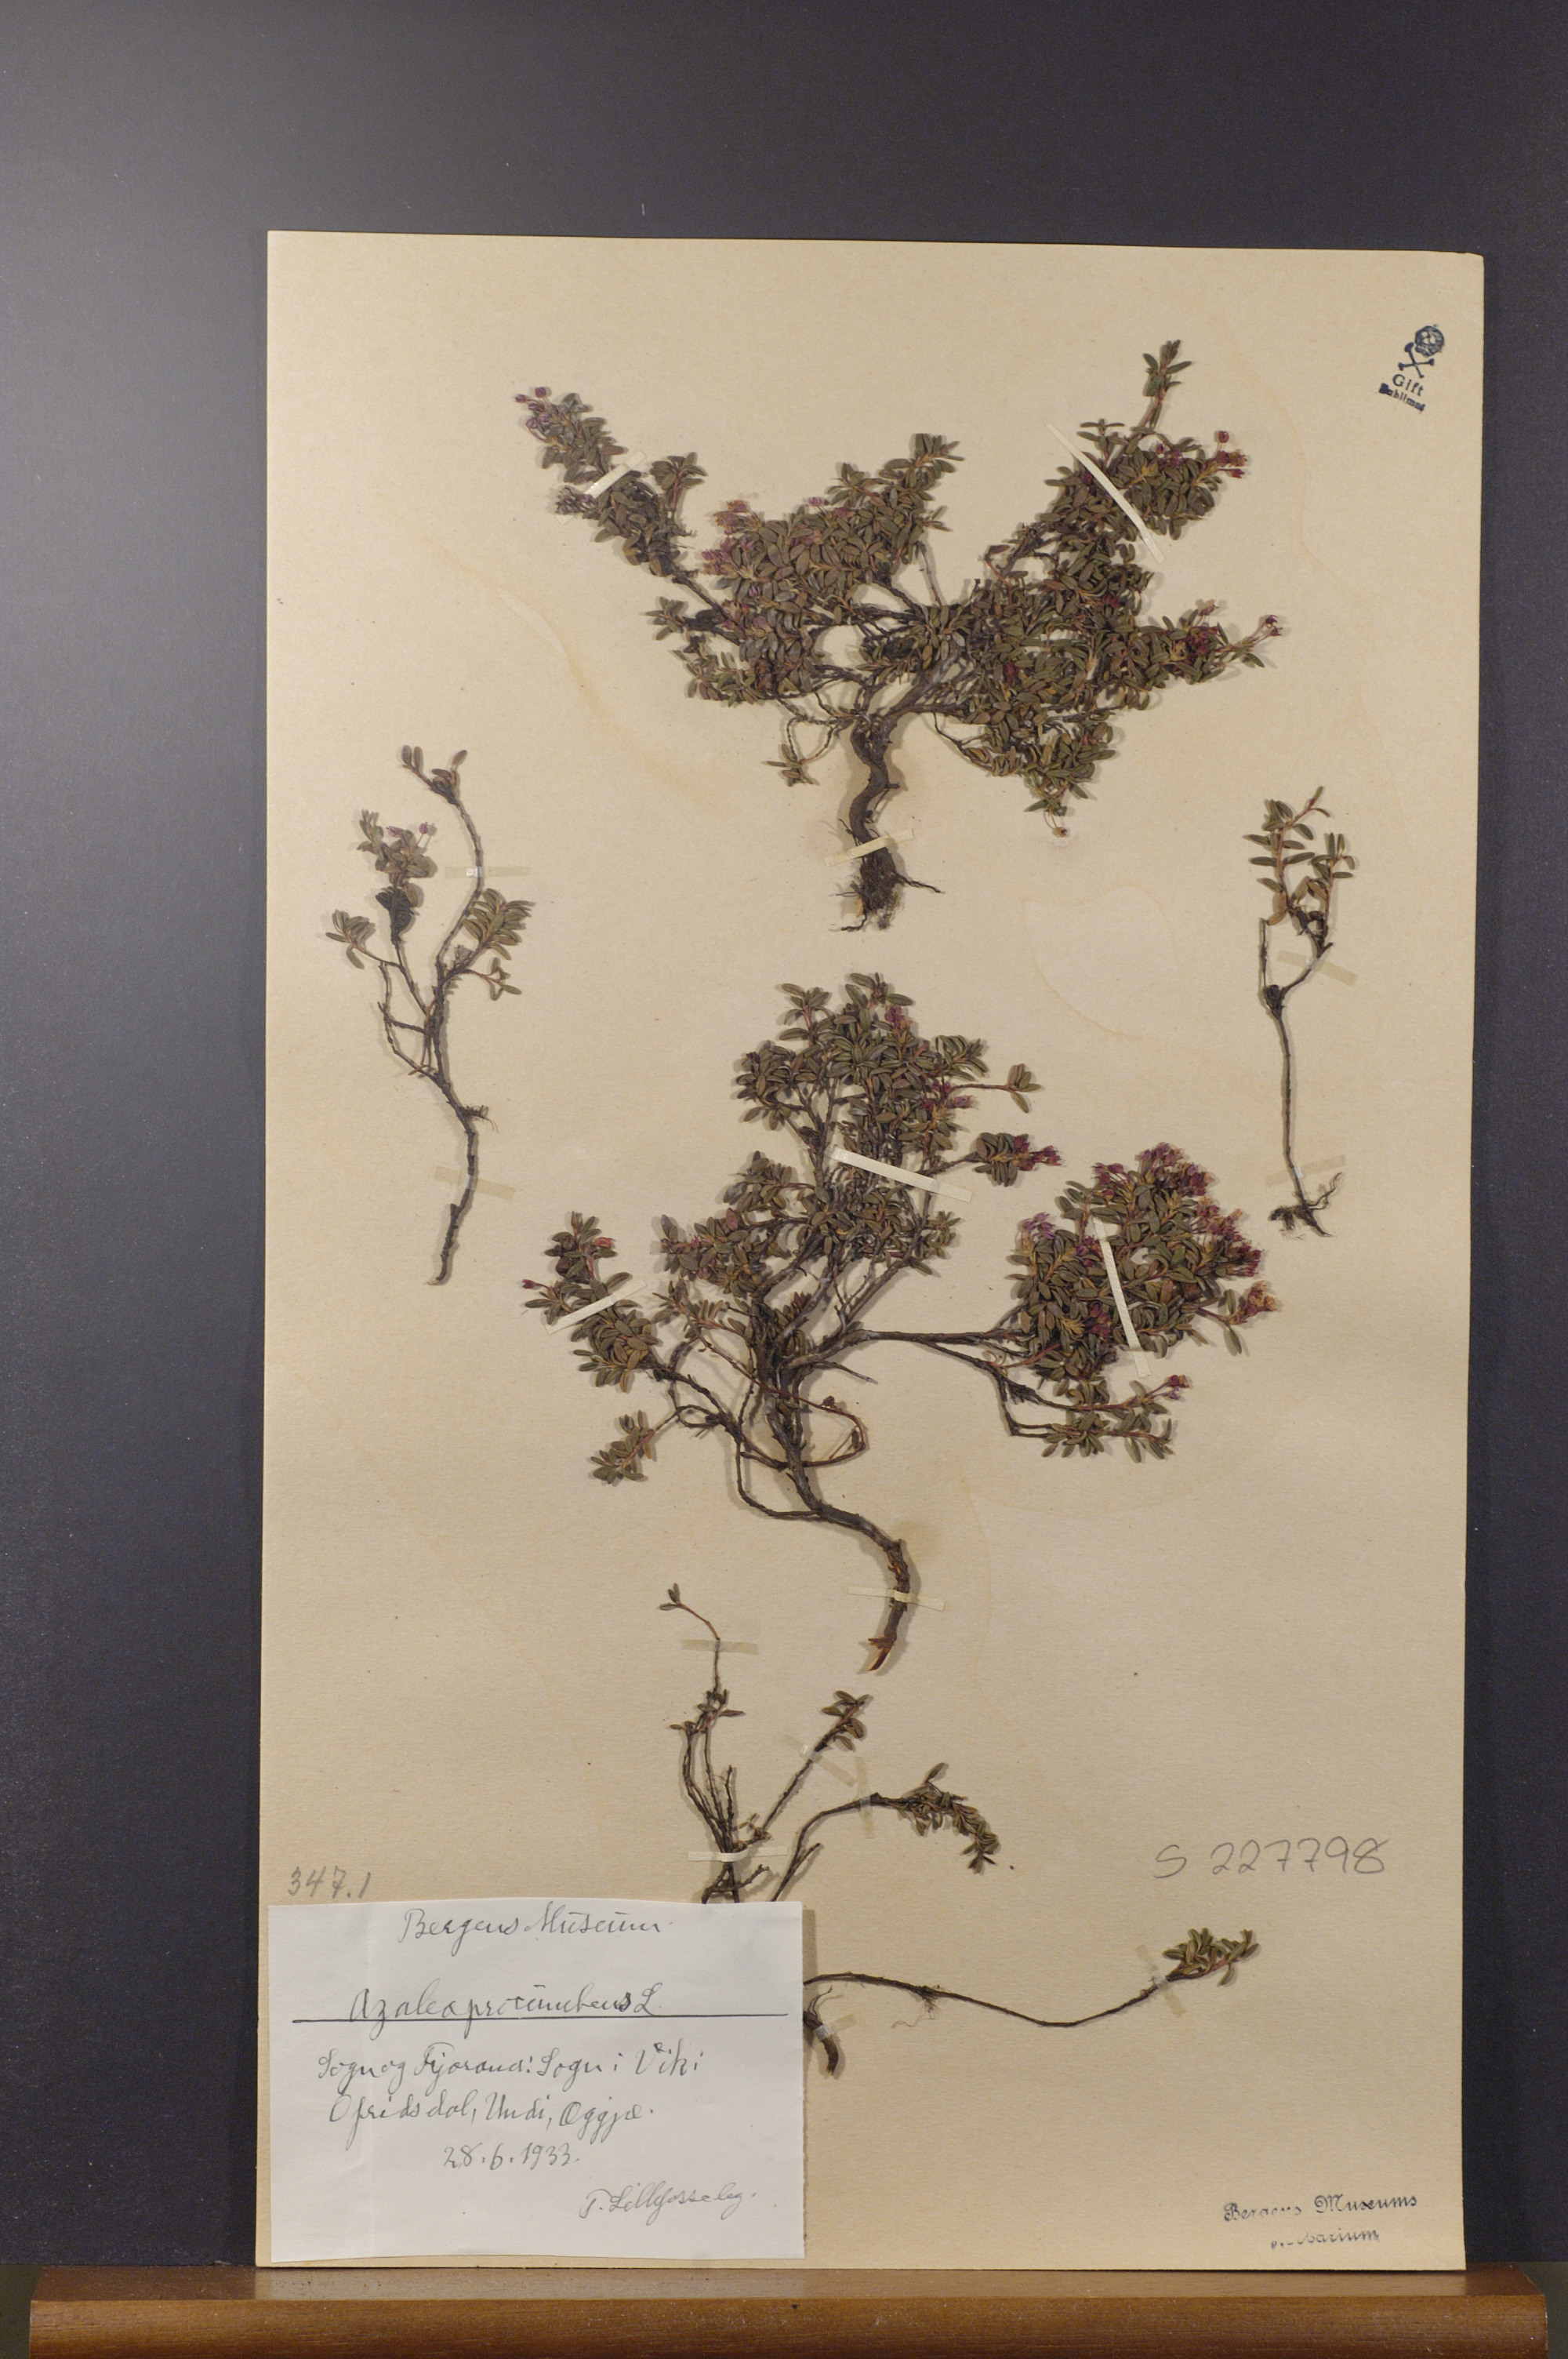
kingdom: Plantae
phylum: Tracheophyta
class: Magnoliopsida
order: Ericales
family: Ericaceae
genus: Kalmia
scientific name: Kalmia procumbens
